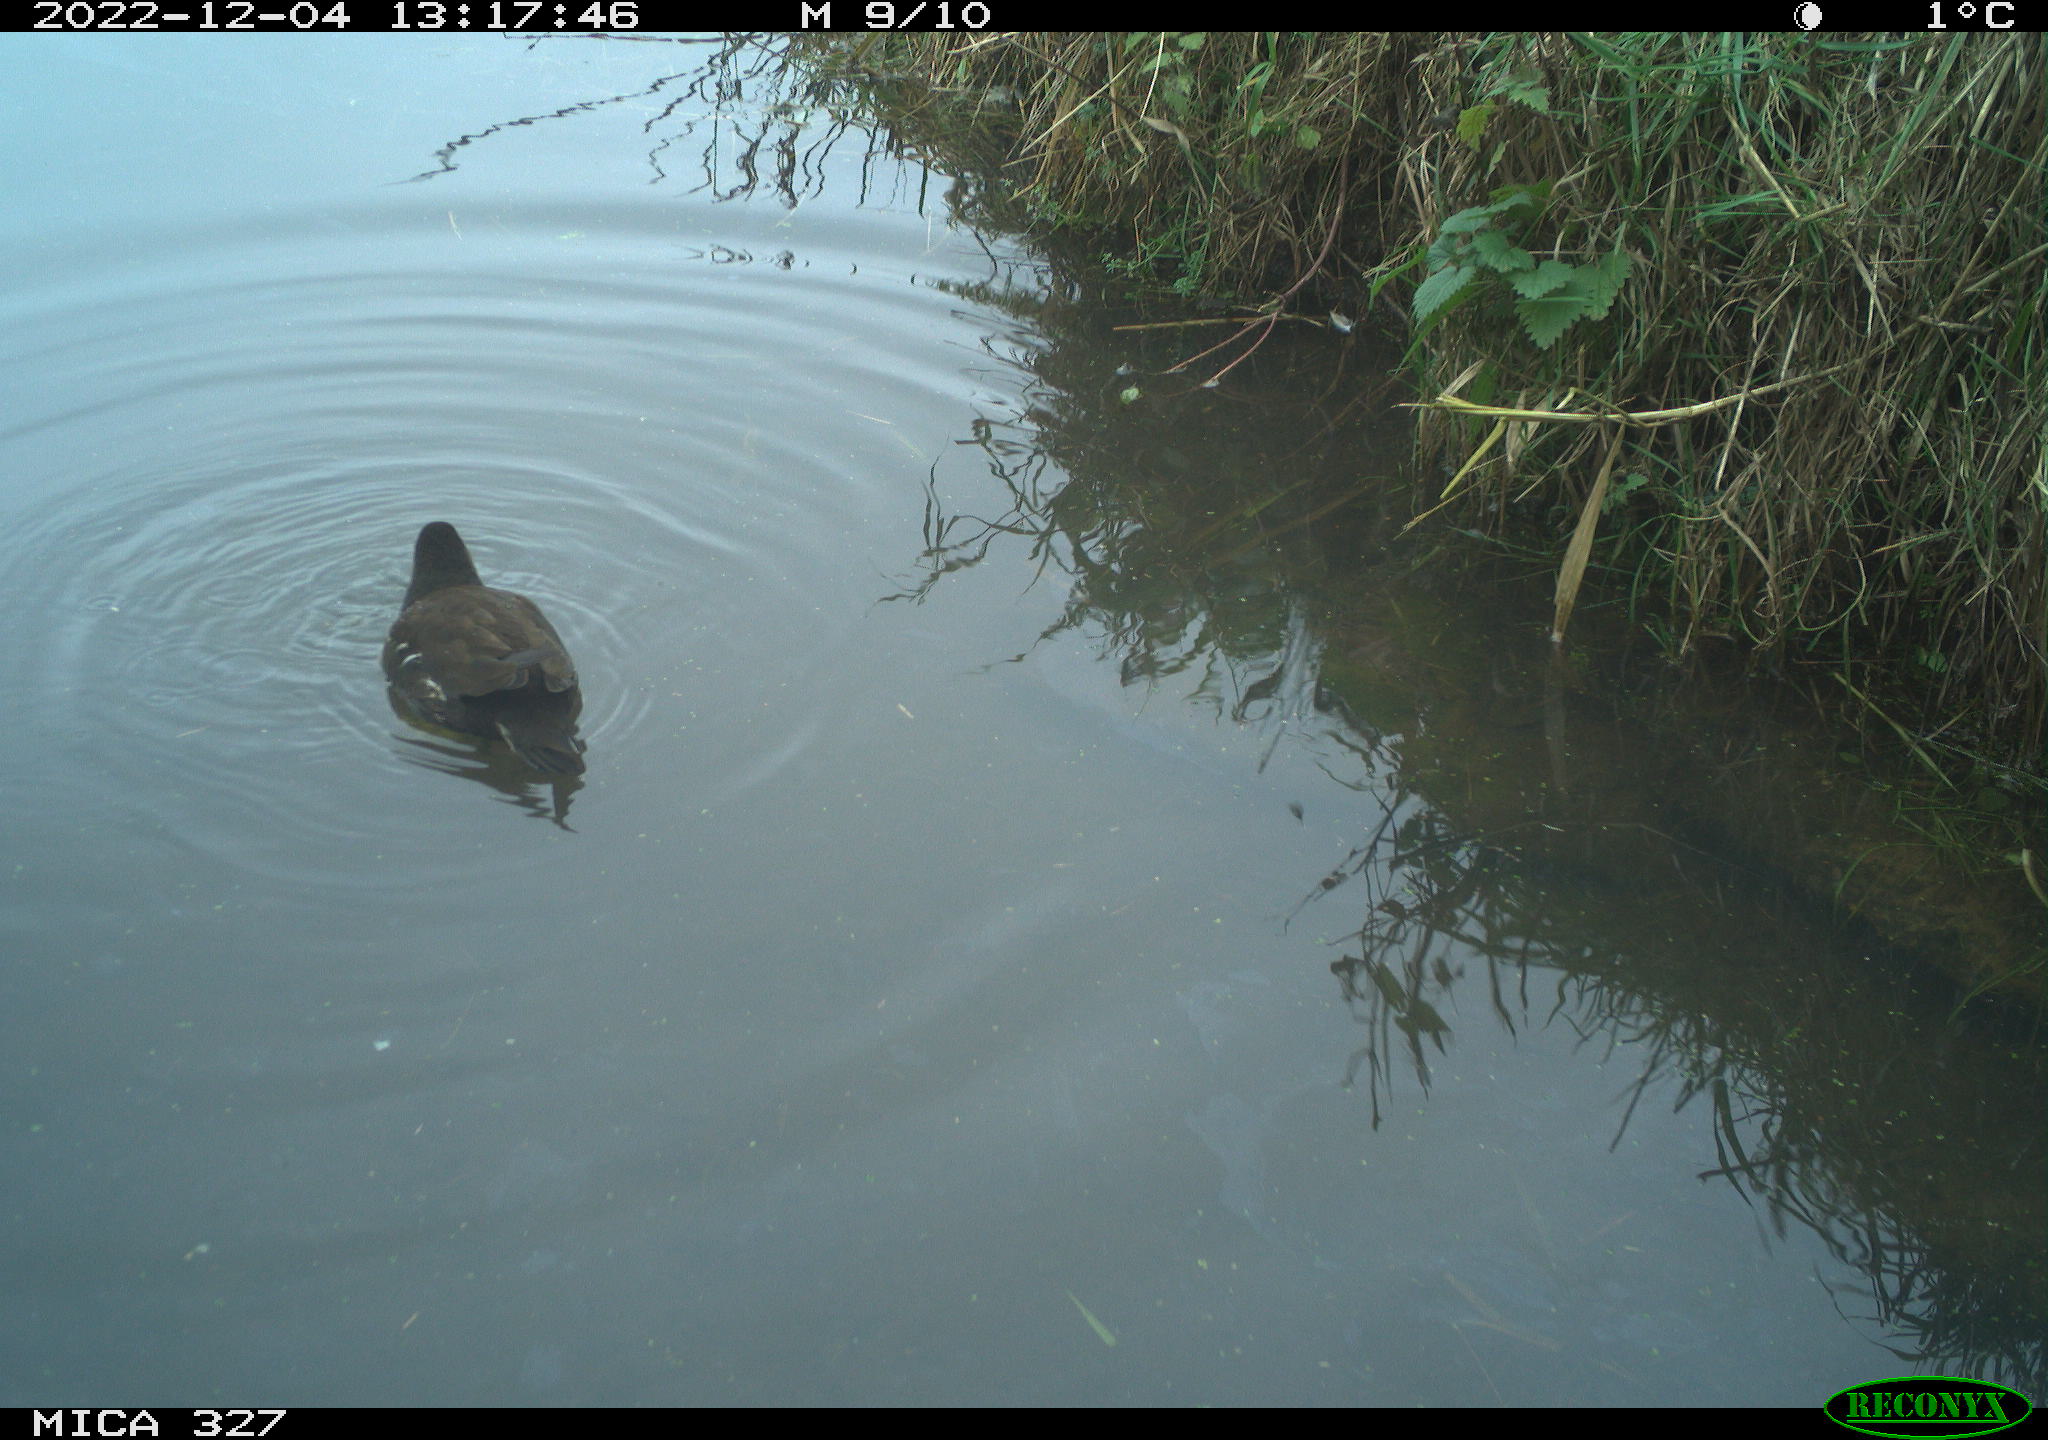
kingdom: Animalia
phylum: Chordata
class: Aves
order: Gruiformes
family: Rallidae
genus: Gallinula
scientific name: Gallinula chloropus
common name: Common moorhen
